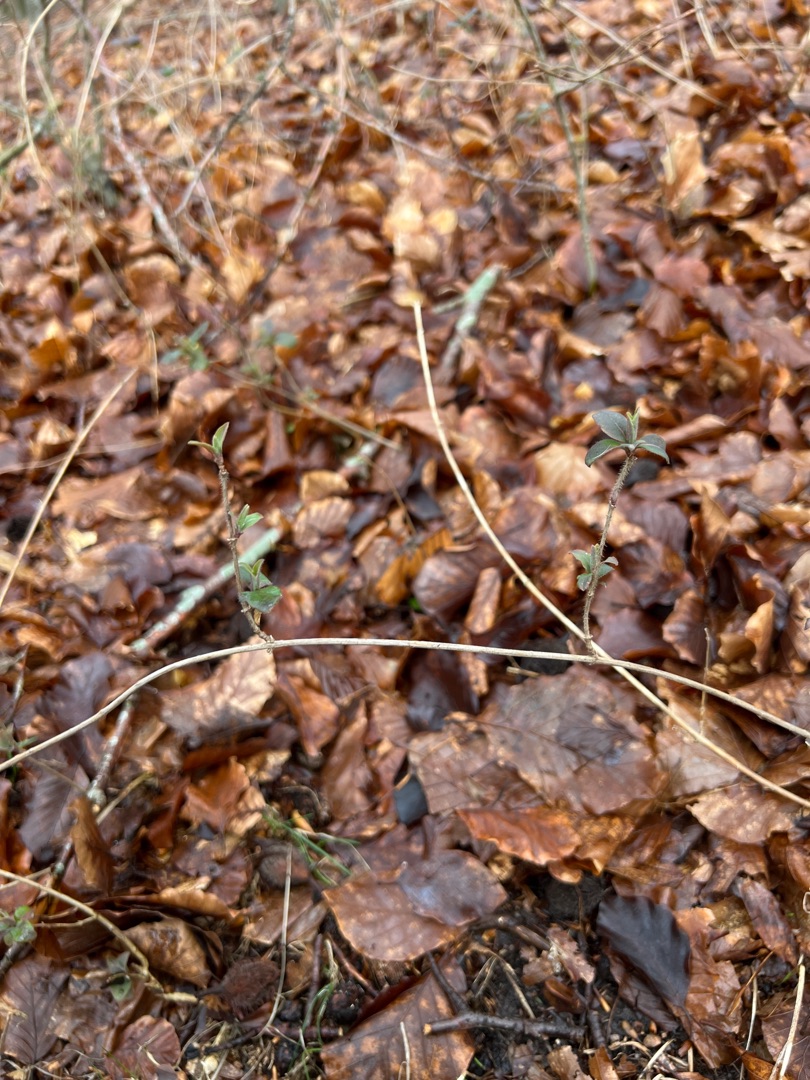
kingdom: Plantae
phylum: Tracheophyta
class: Magnoliopsida
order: Dipsacales
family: Caprifoliaceae
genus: Lonicera
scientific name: Lonicera periclymenum
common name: Almindelig gedeblad
